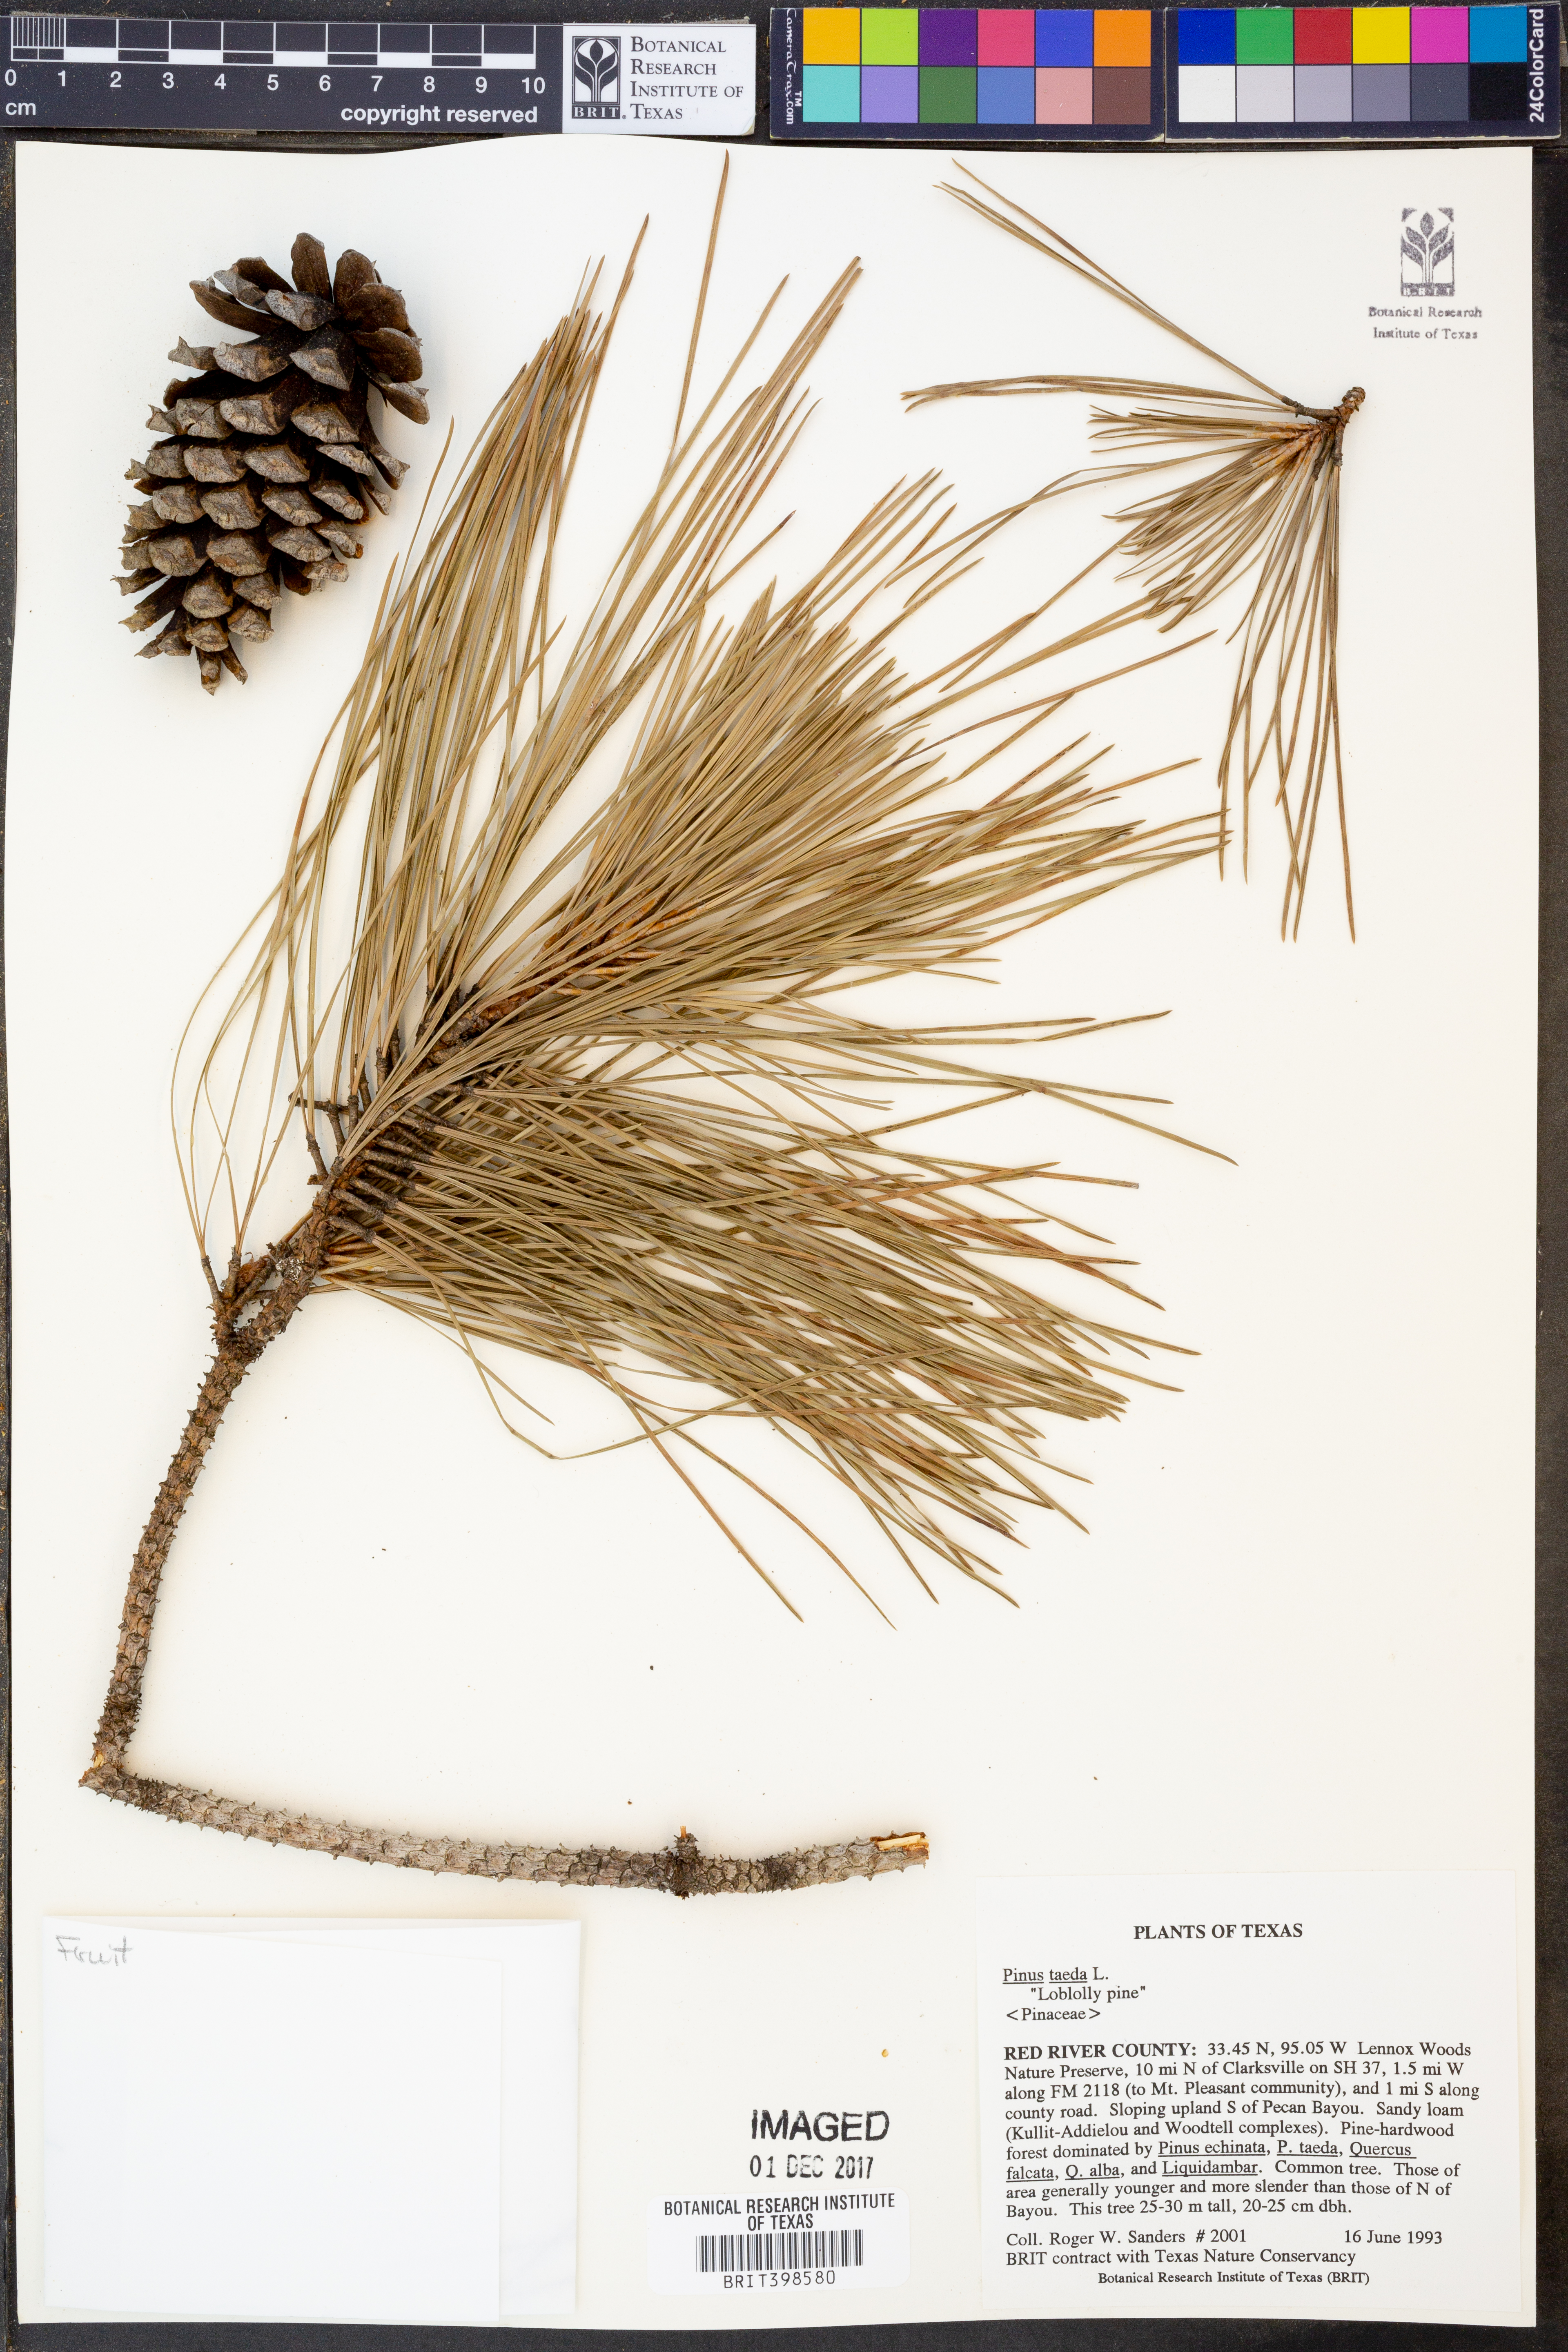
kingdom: Plantae
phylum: Tracheophyta
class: Pinopsida
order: Pinales
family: Pinaceae
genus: Pinus
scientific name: Pinus taeda
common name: Loblolly pine
